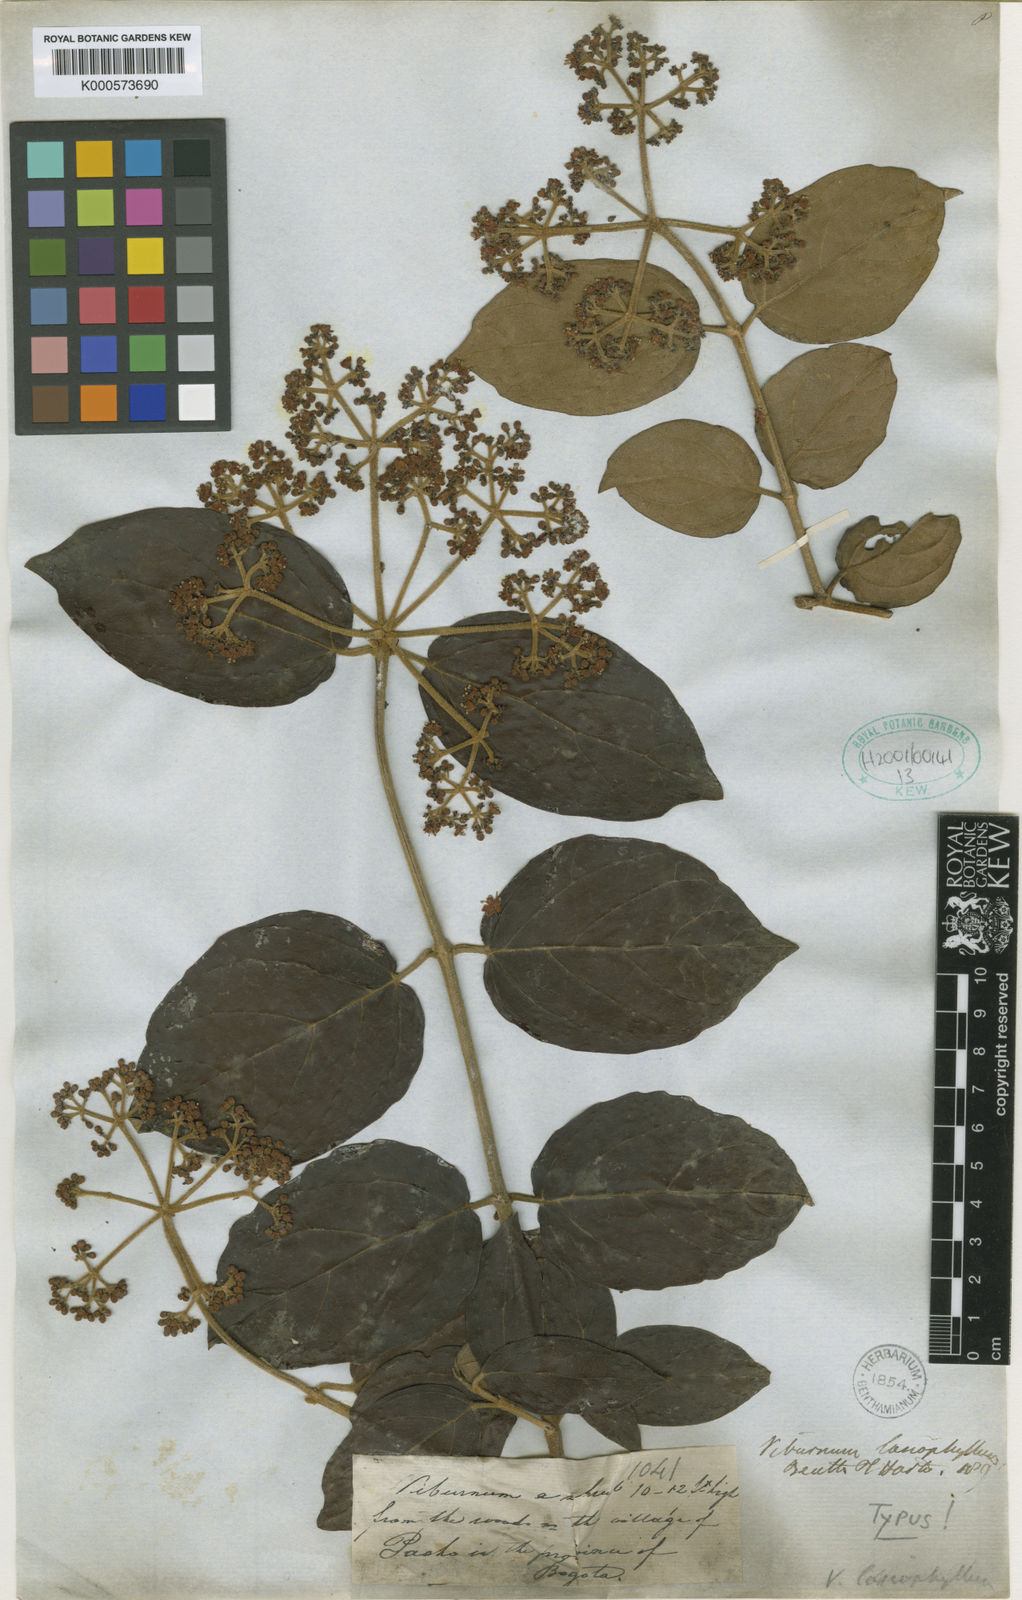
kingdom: Plantae
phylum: Tracheophyta
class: Magnoliopsida
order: Dipsacales
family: Viburnaceae
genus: Viburnum
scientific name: Viburnum lasiophyllum
